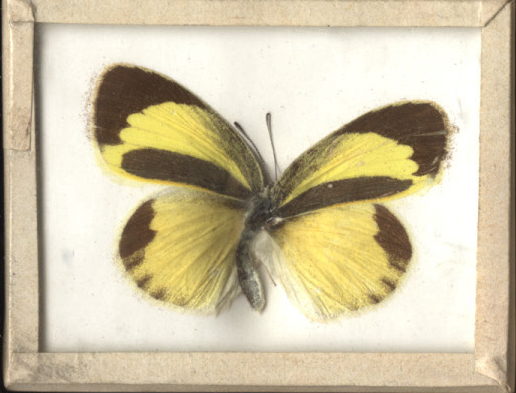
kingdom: Animalia
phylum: Arthropoda
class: Insecta
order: Lepidoptera
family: Pieridae
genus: Eurema
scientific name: Eurema daira
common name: Barred Yellow
